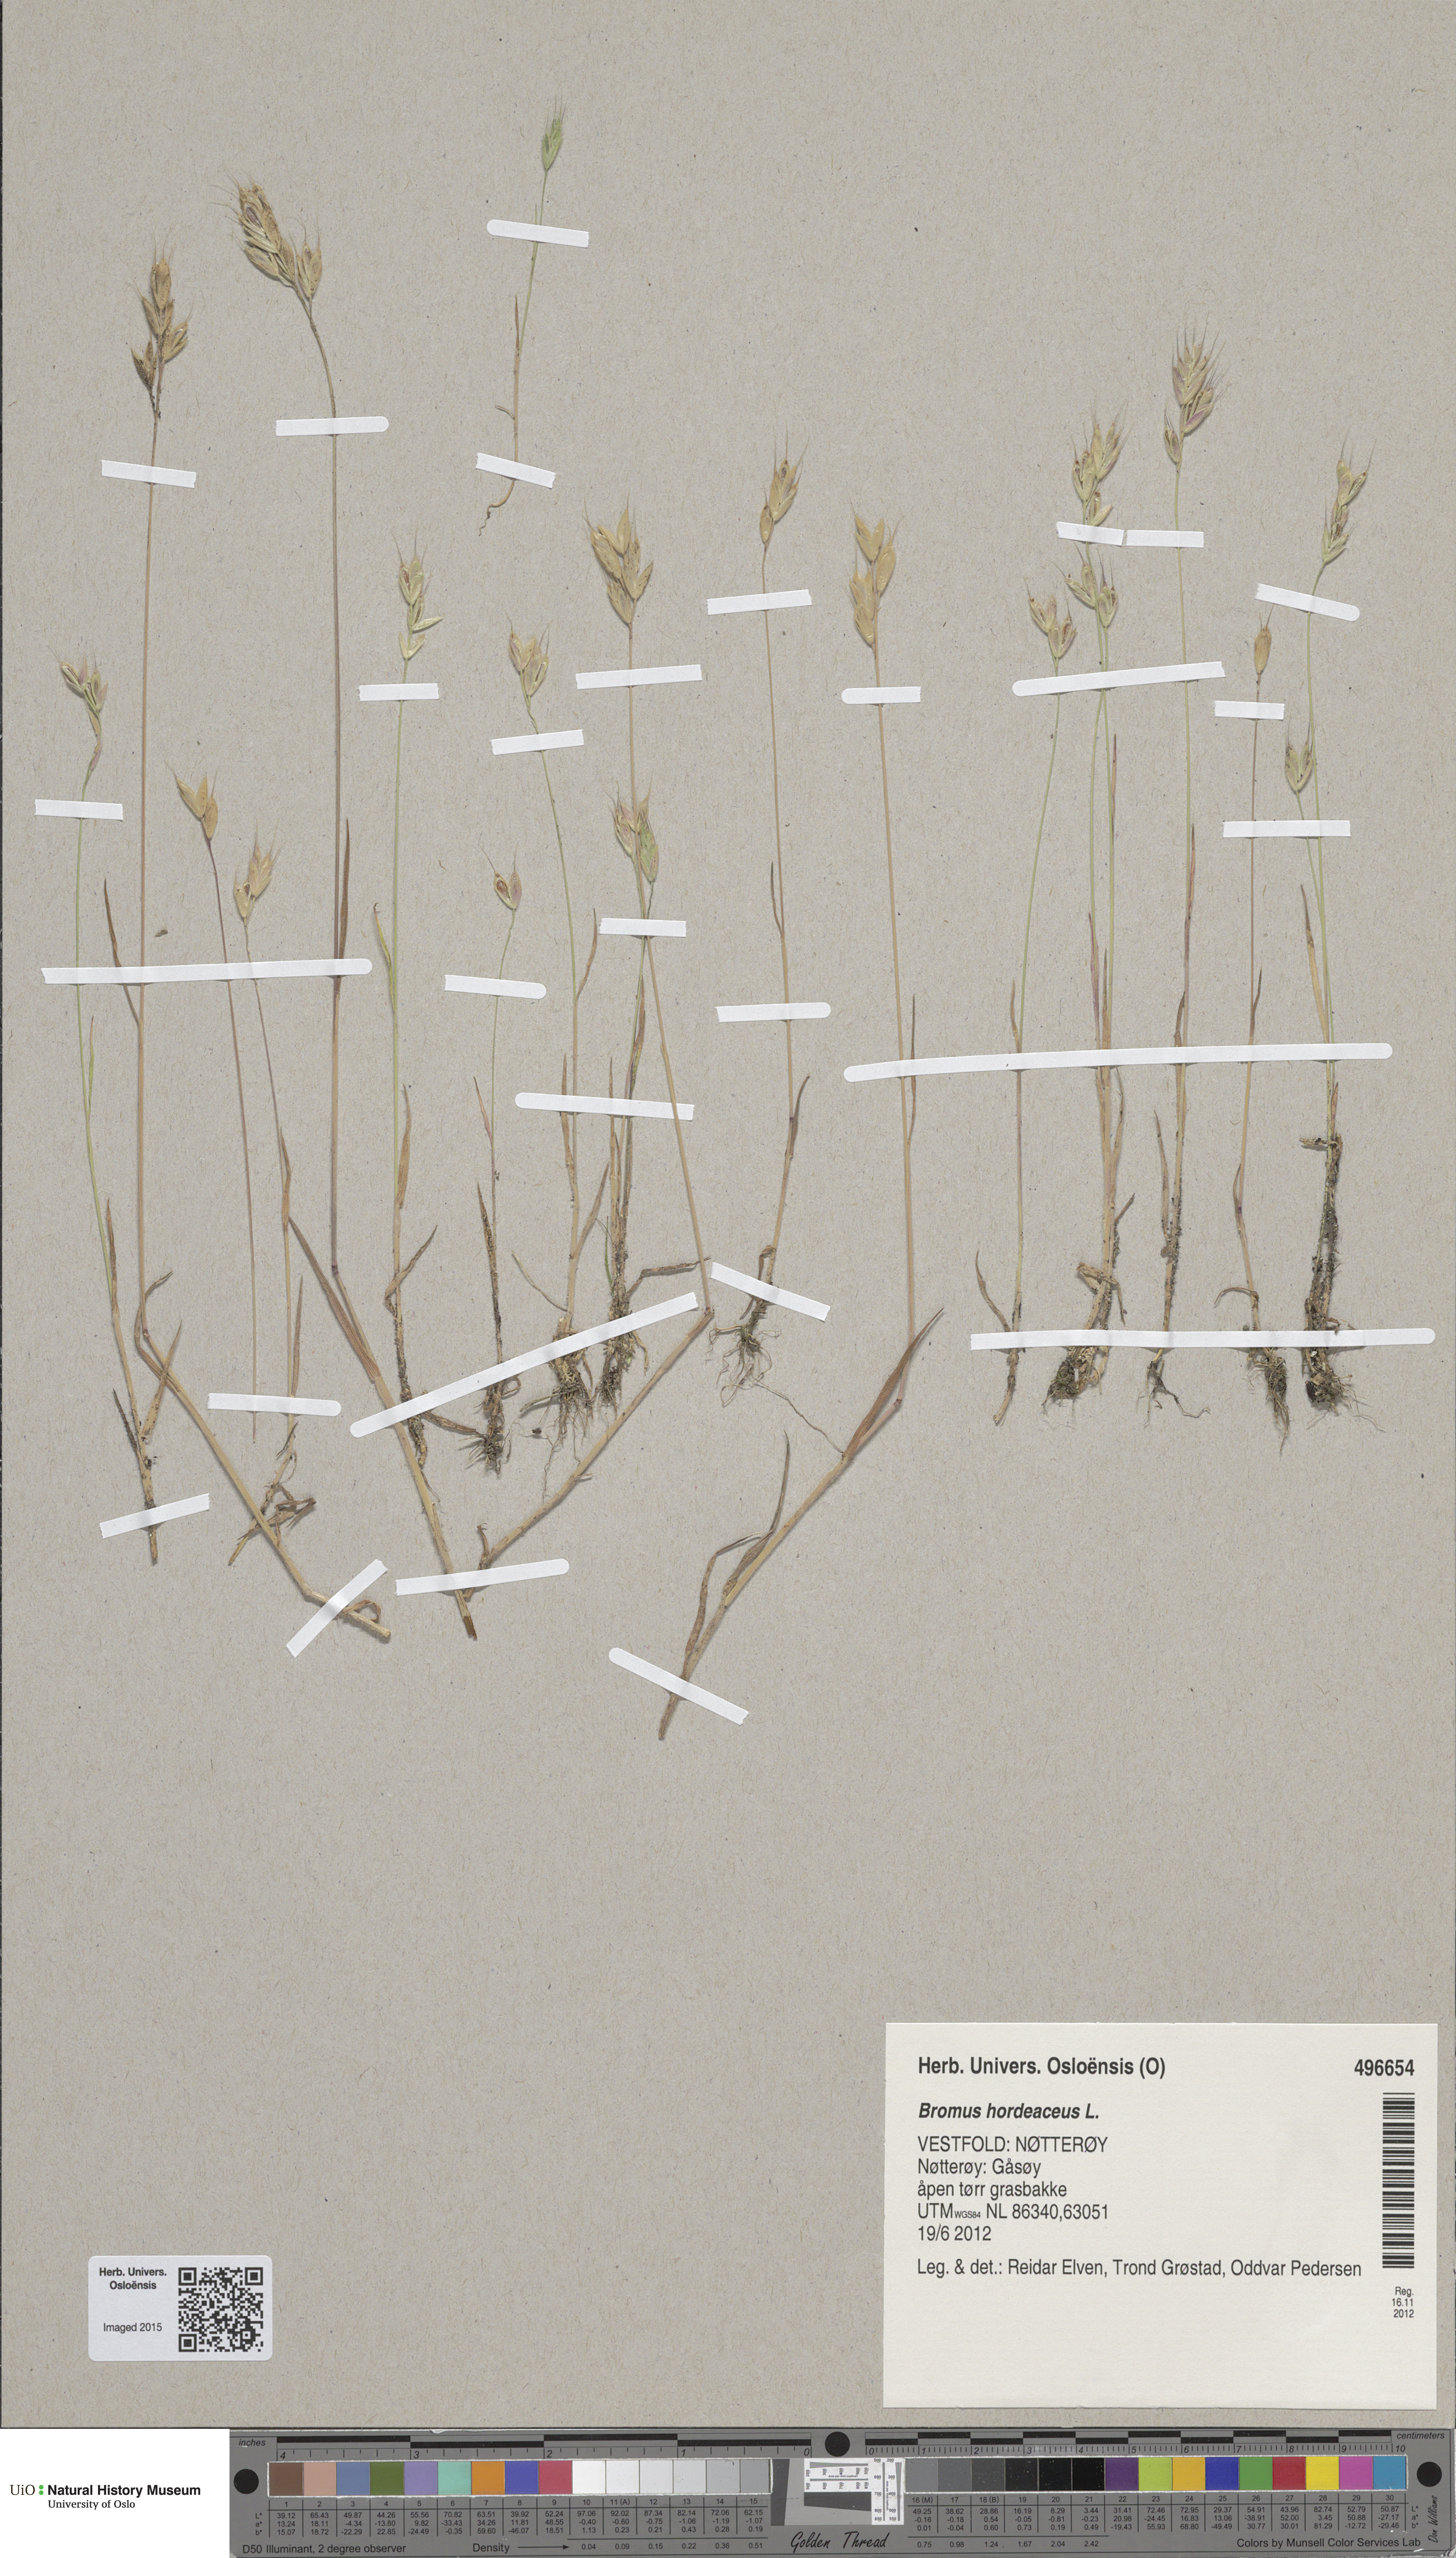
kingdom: Plantae
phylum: Tracheophyta
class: Liliopsida
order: Poales
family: Poaceae
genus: Bromus
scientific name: Bromus hordeaceus
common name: Soft brome
